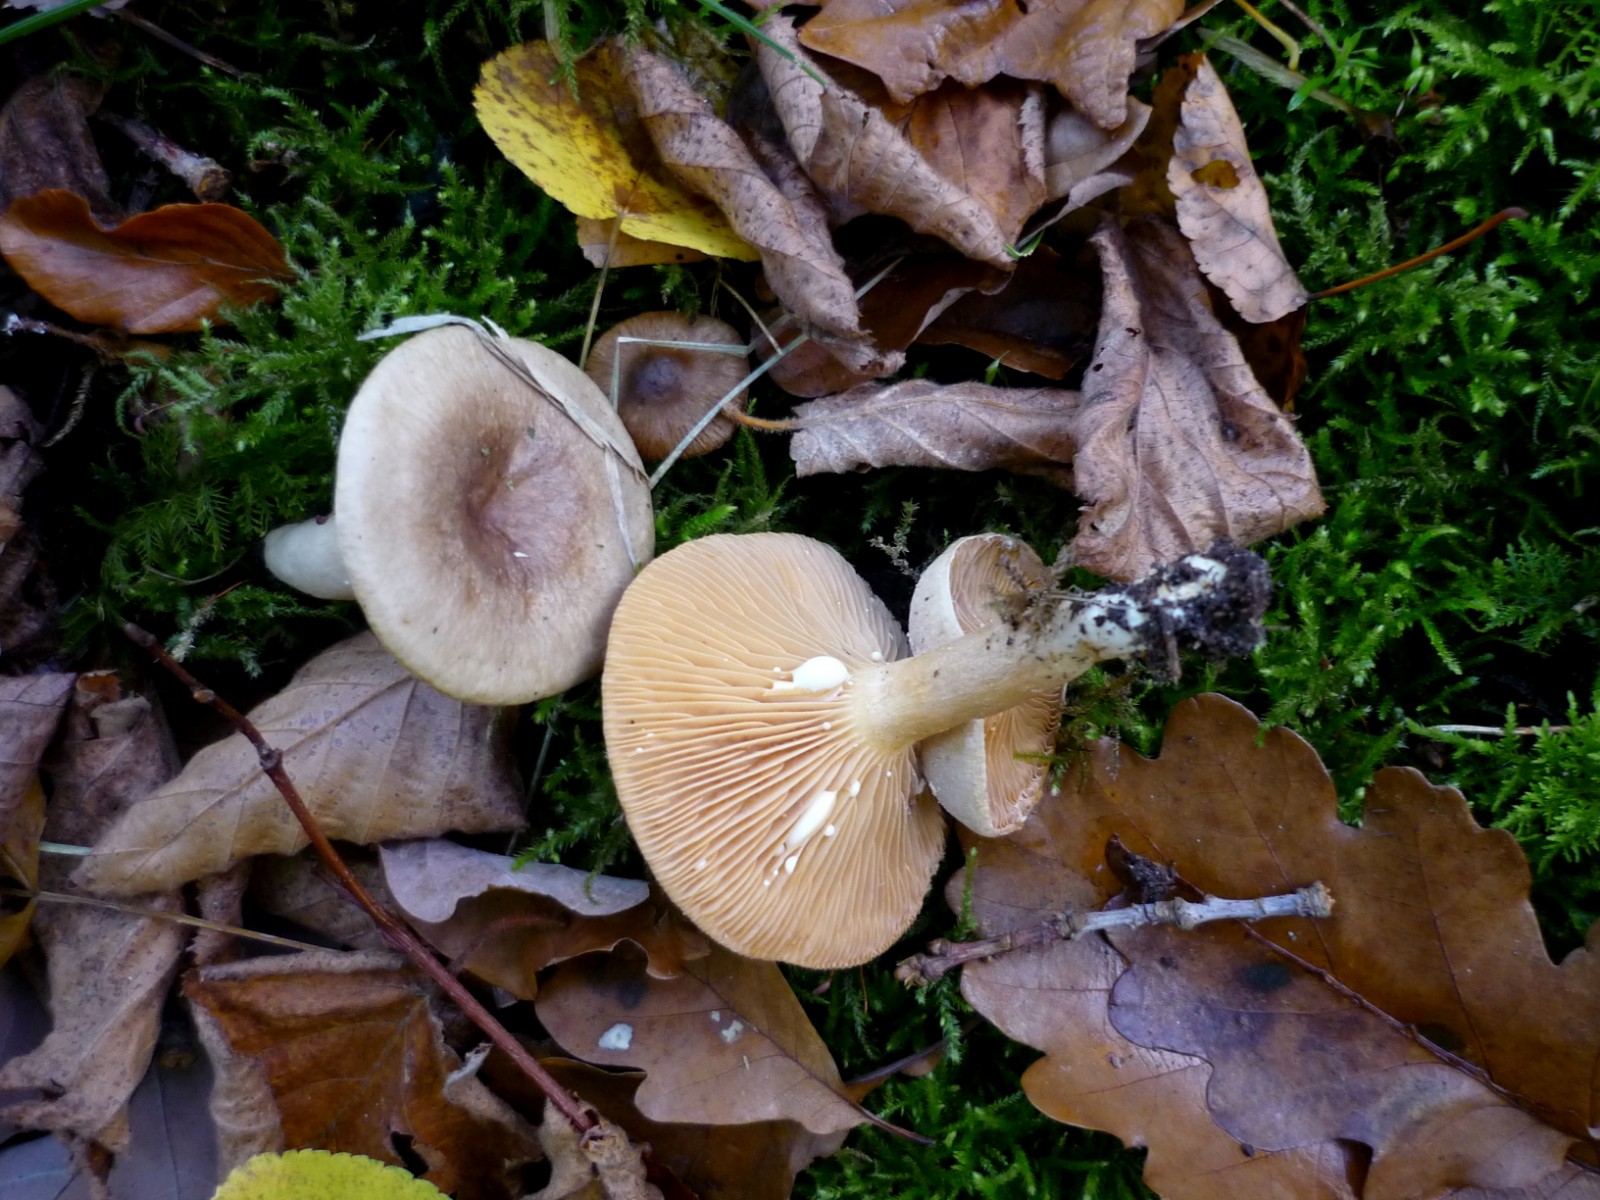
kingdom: Fungi
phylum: Basidiomycota
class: Agaricomycetes
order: Russulales
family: Russulaceae
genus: Lactarius
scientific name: Lactarius pyrogalus
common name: hassel-mælkehat
